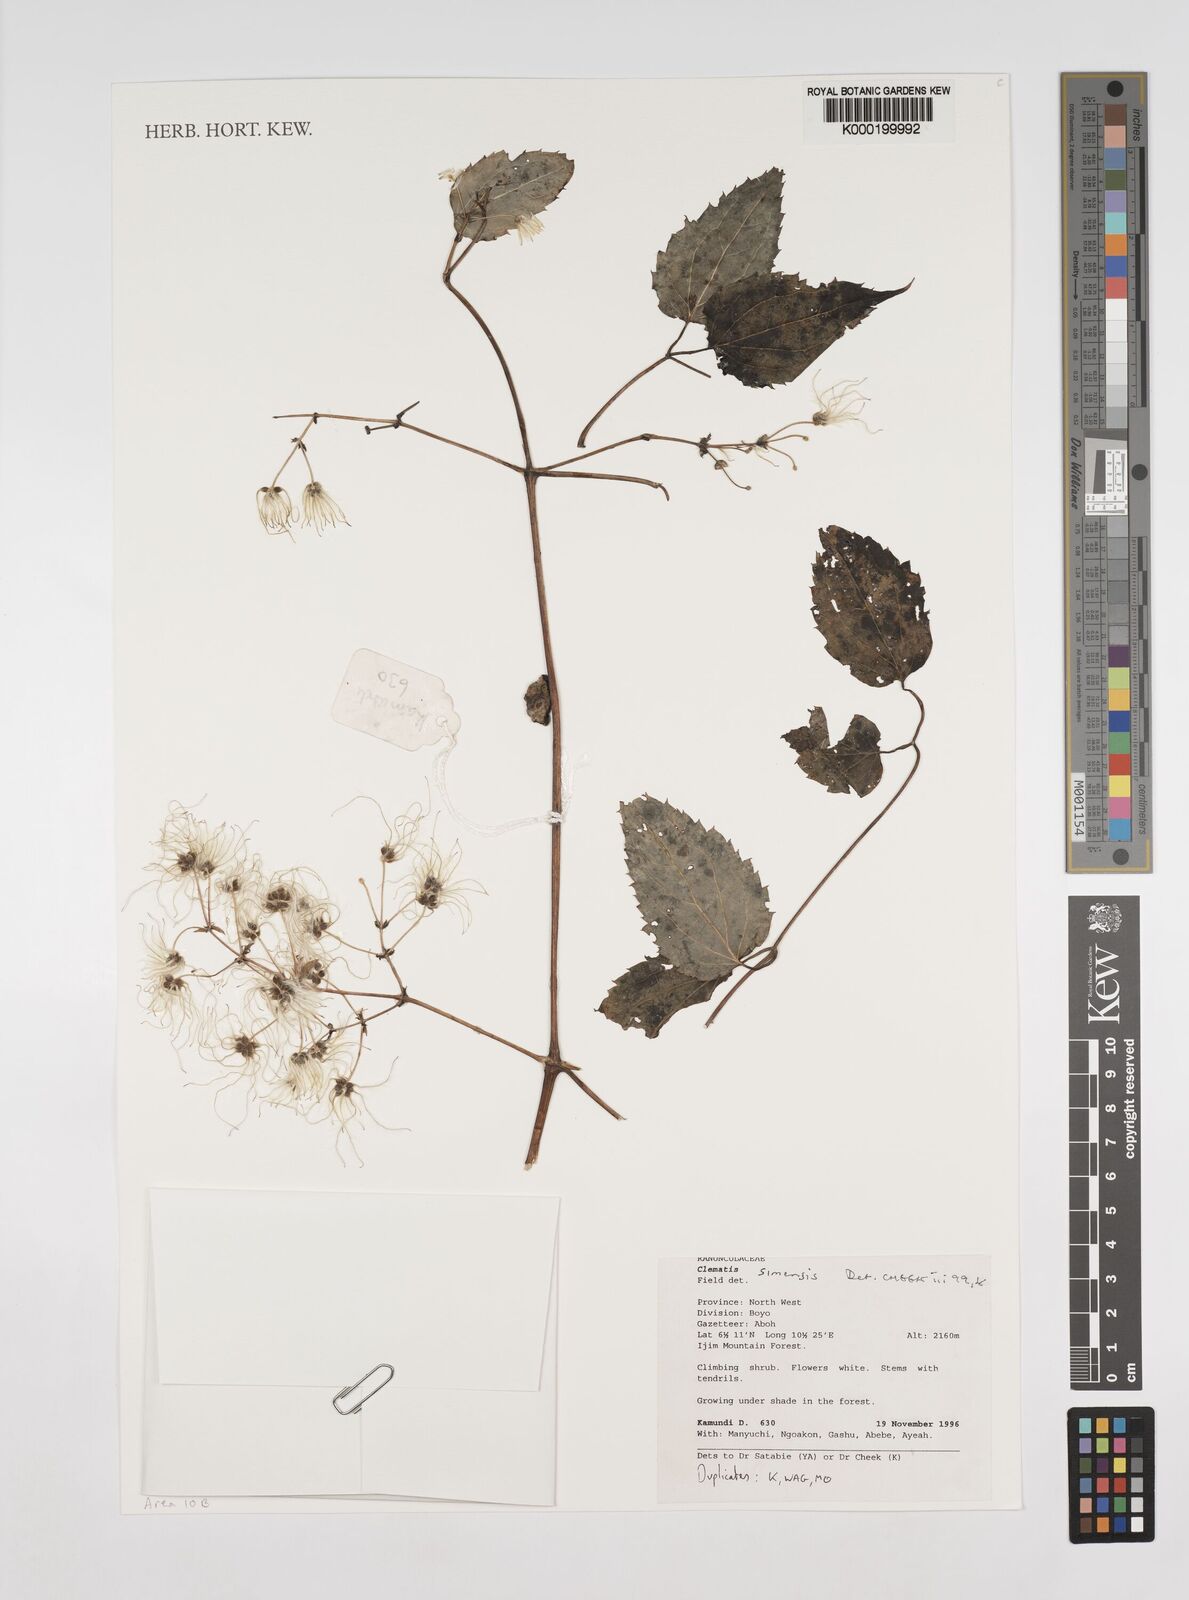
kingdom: Plantae
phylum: Tracheophyta
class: Magnoliopsida
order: Ranunculales
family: Ranunculaceae
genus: Clematis
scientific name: Clematis simensis
